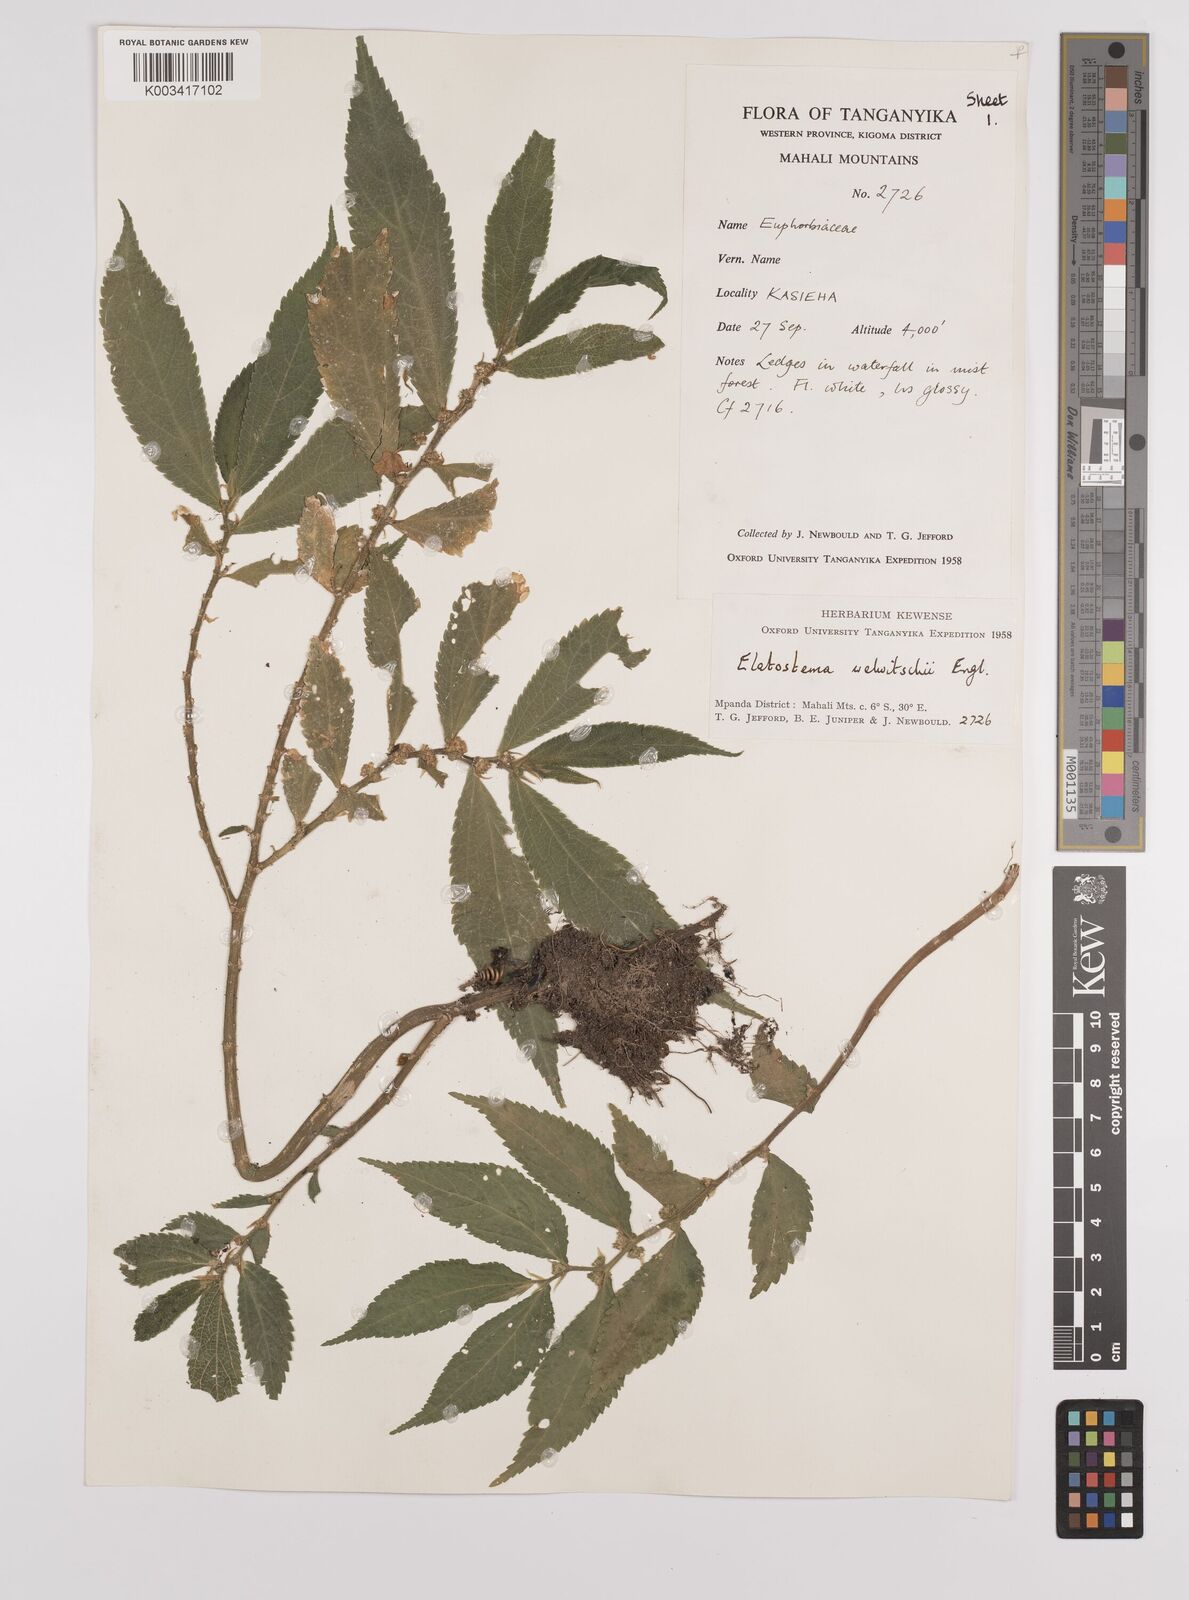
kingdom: Plantae
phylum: Tracheophyta
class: Magnoliopsida
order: Rosales
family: Urticaceae
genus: Elatostema
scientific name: Elatostema welwitschii
